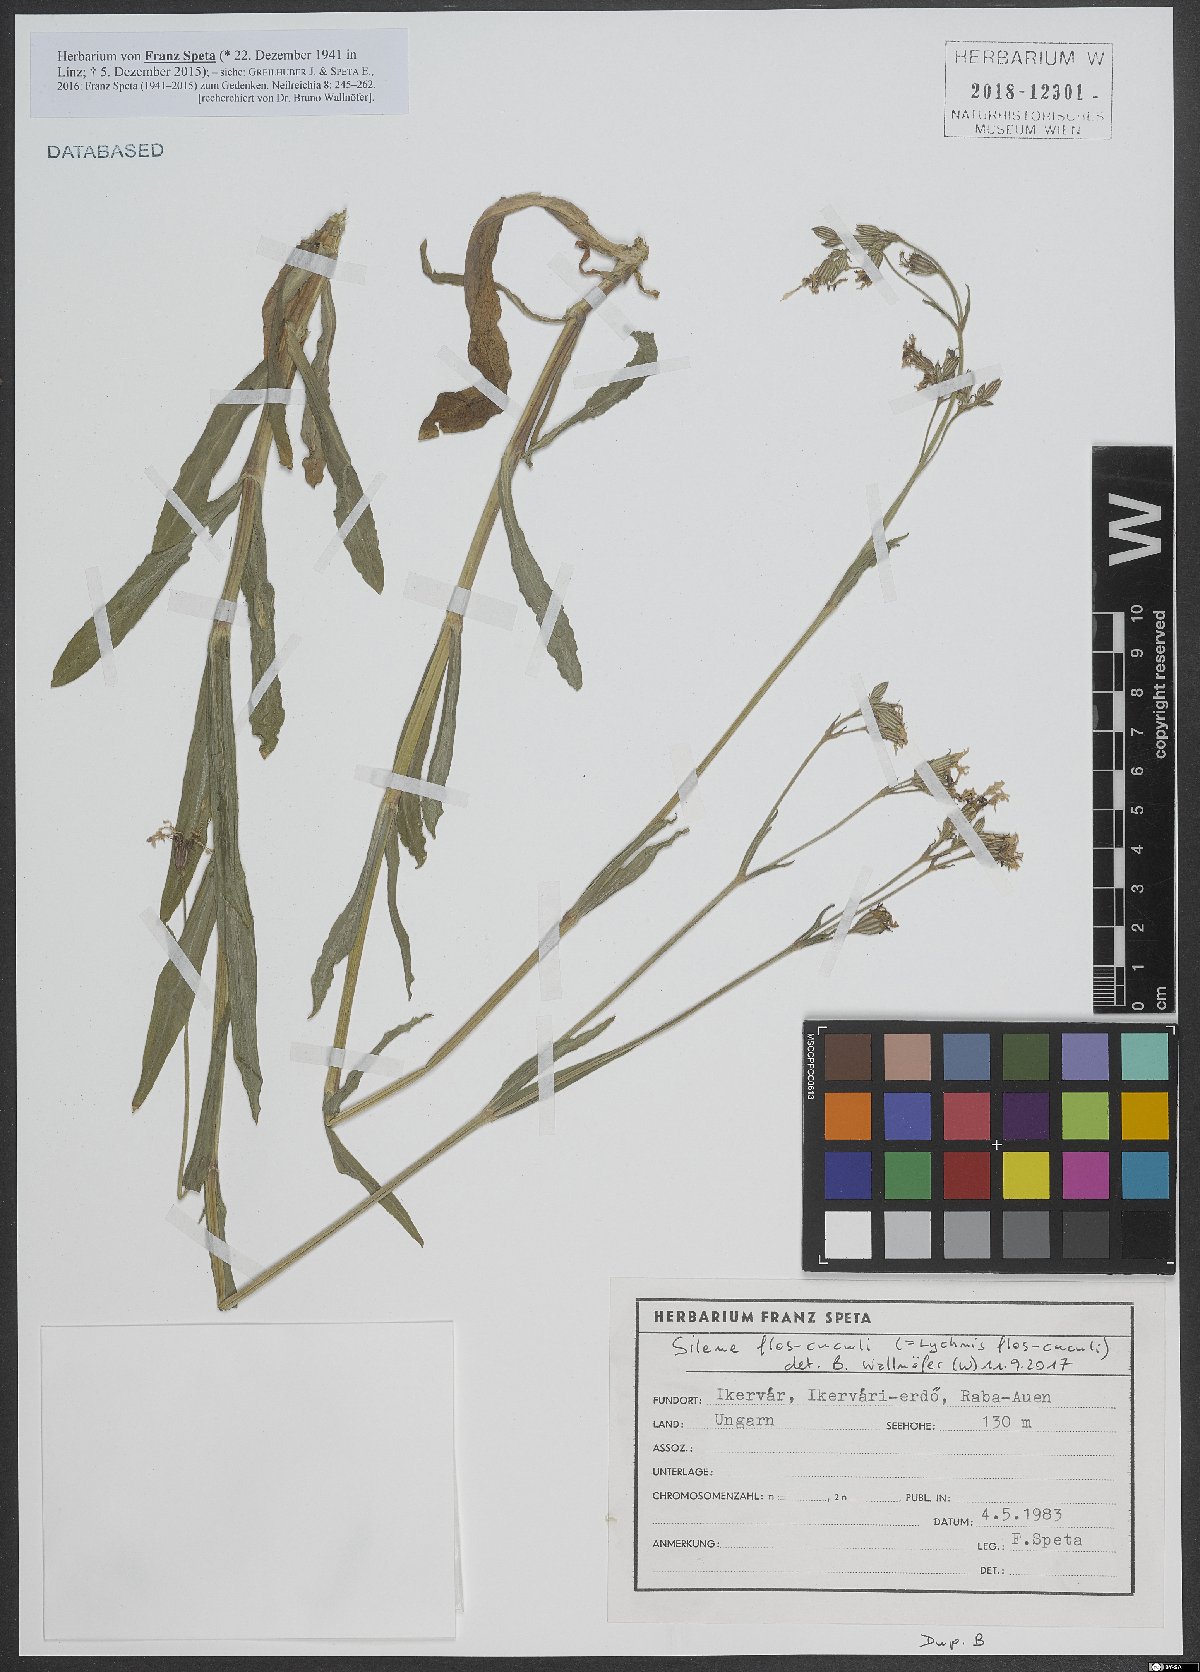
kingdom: Plantae
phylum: Tracheophyta
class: Magnoliopsida
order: Caryophyllales
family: Caryophyllaceae
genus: Silene
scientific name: Silene flos-cuculi
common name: Ragged-robin
